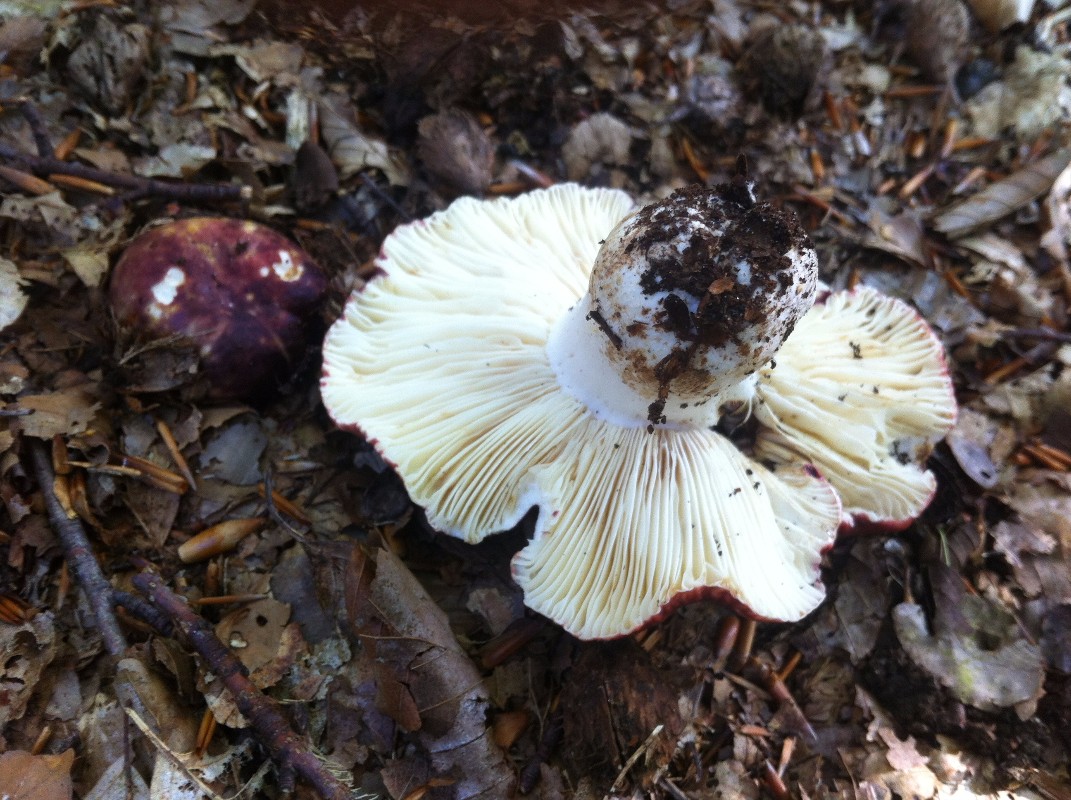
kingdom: Fungi
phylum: Basidiomycota
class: Agaricomycetes
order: Russulales
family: Russulaceae
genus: Russula
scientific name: Russula atropurpurea
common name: purpurbroget skørhat
